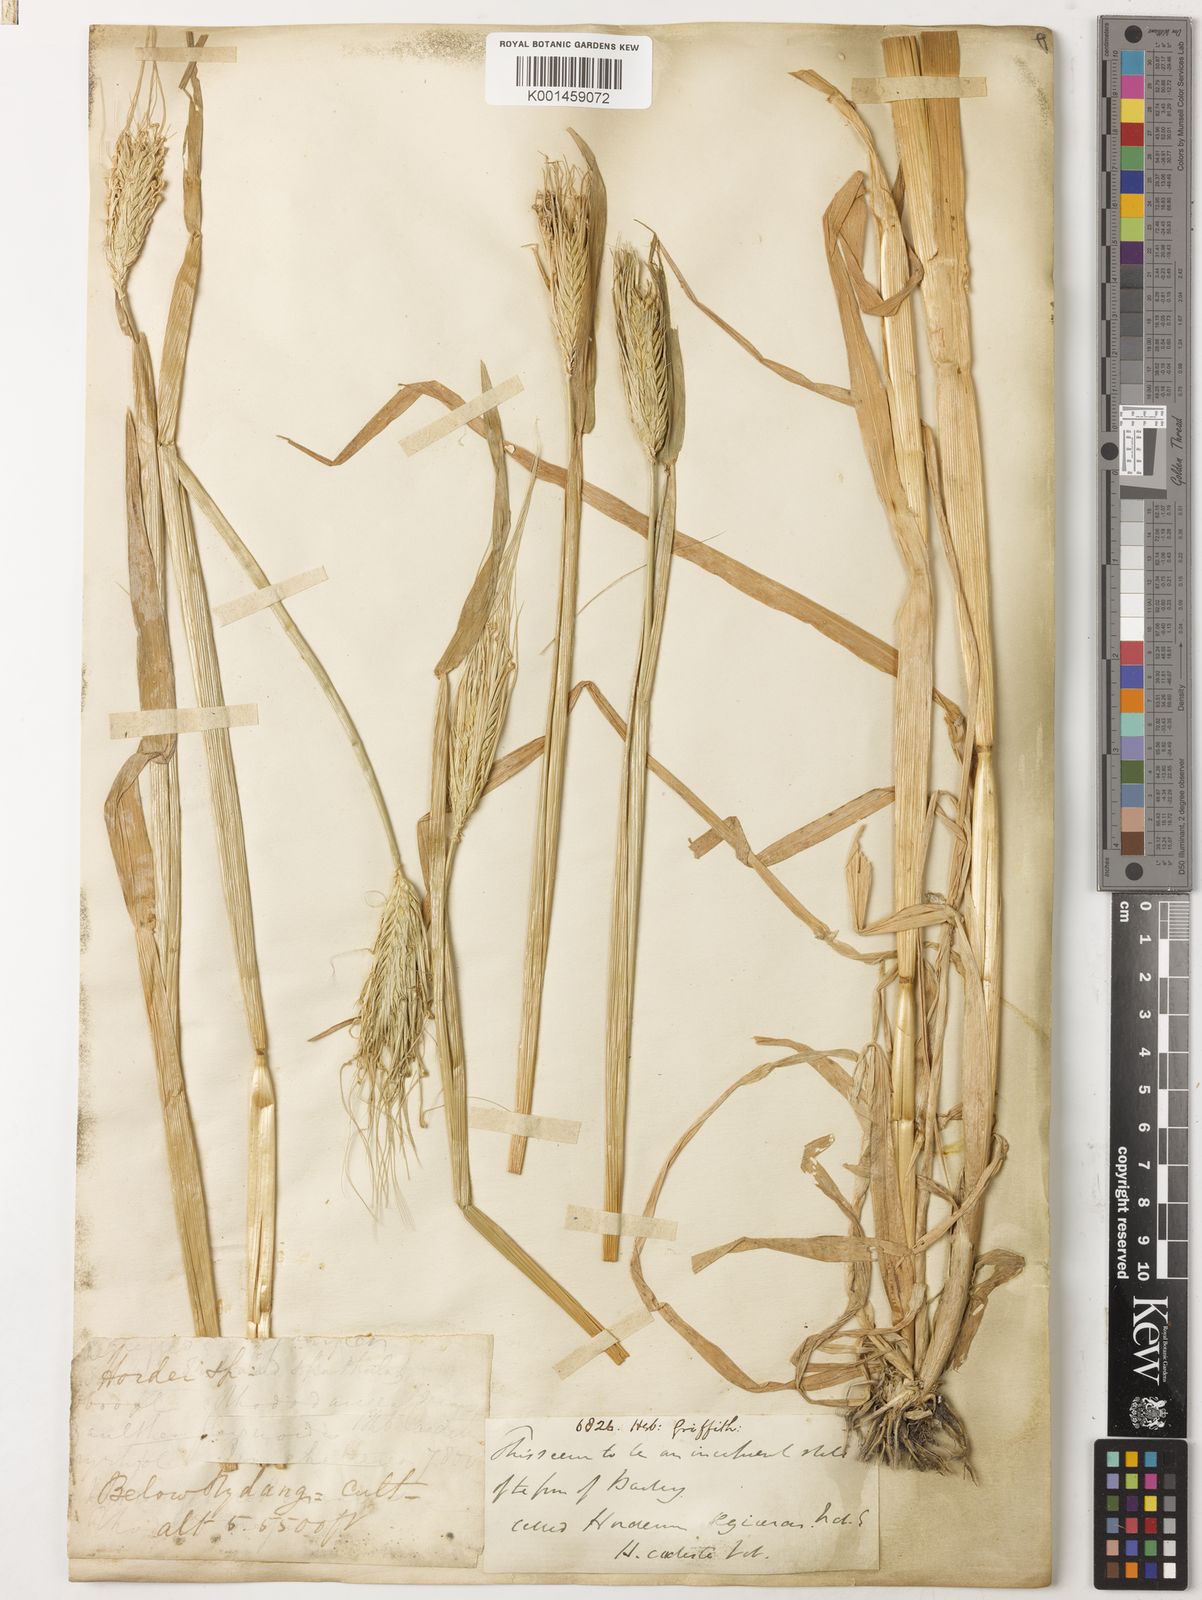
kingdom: Plantae
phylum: Tracheophyta
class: Liliopsida
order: Poales
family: Poaceae
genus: Hordeum
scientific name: Hordeum vulgare
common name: Common barley
